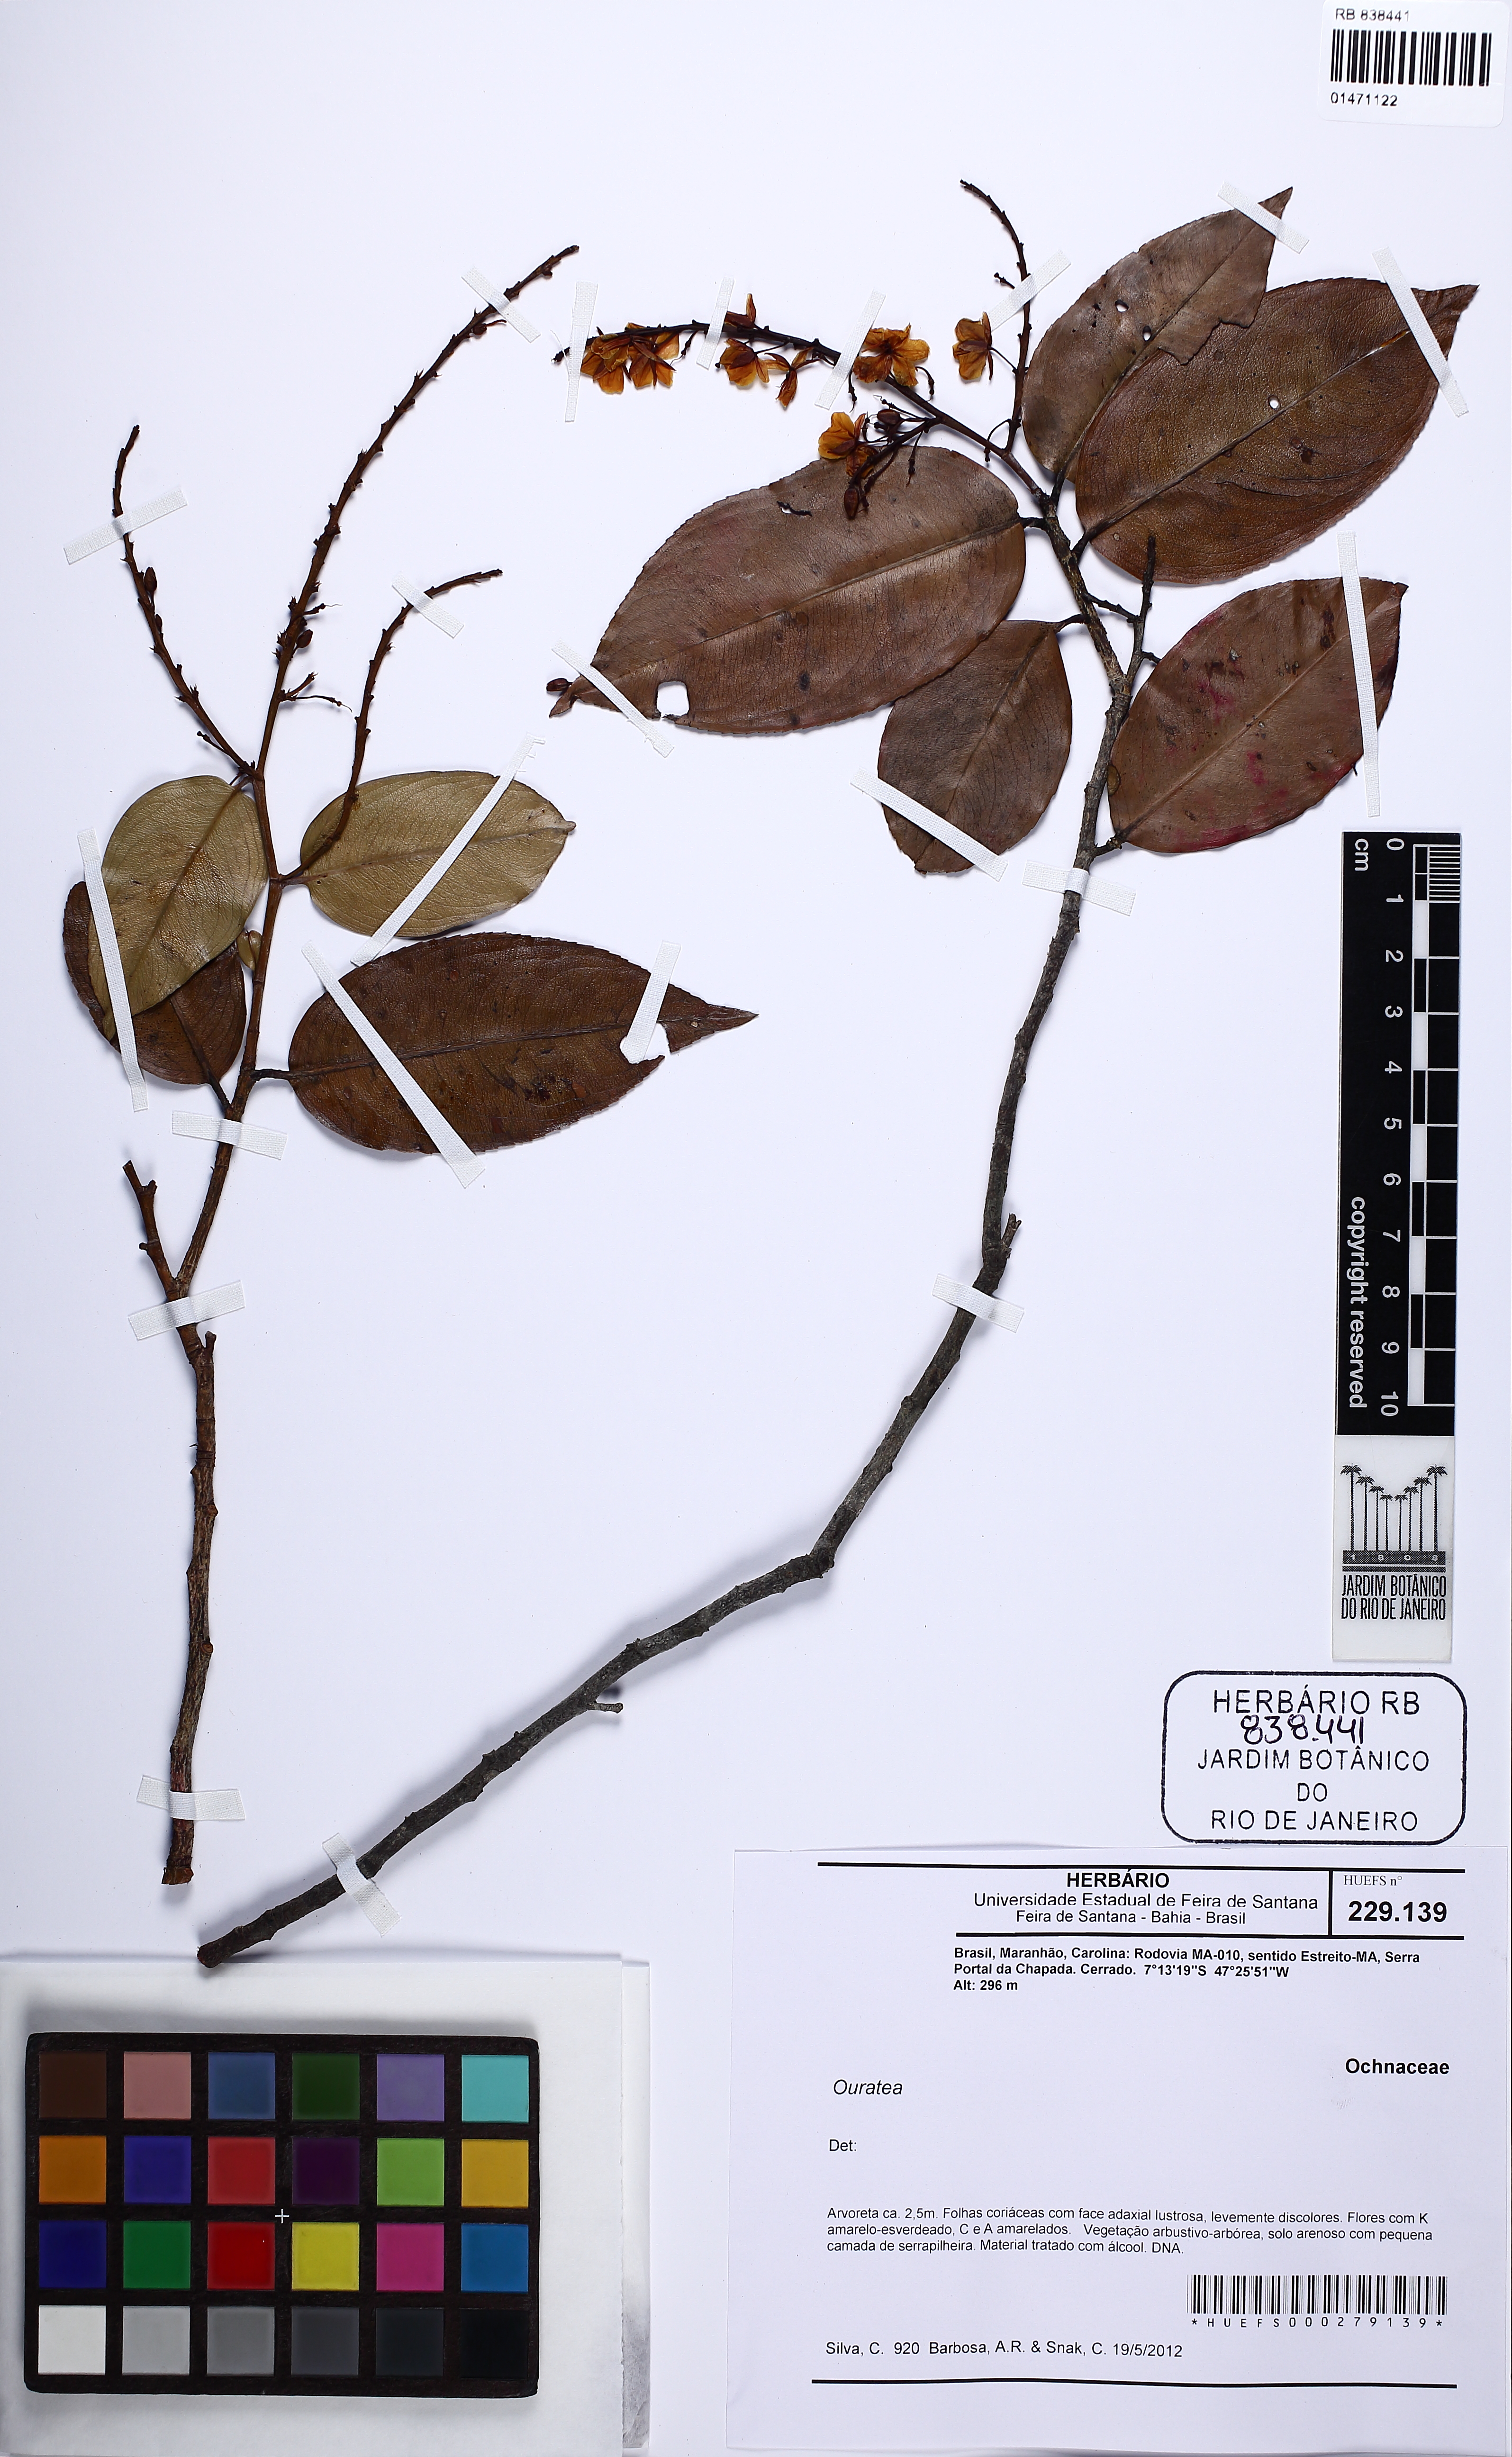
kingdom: Plantae
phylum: Tracheophyta
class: Magnoliopsida
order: Malpighiales
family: Ochnaceae
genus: Ouratea
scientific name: Ouratea
